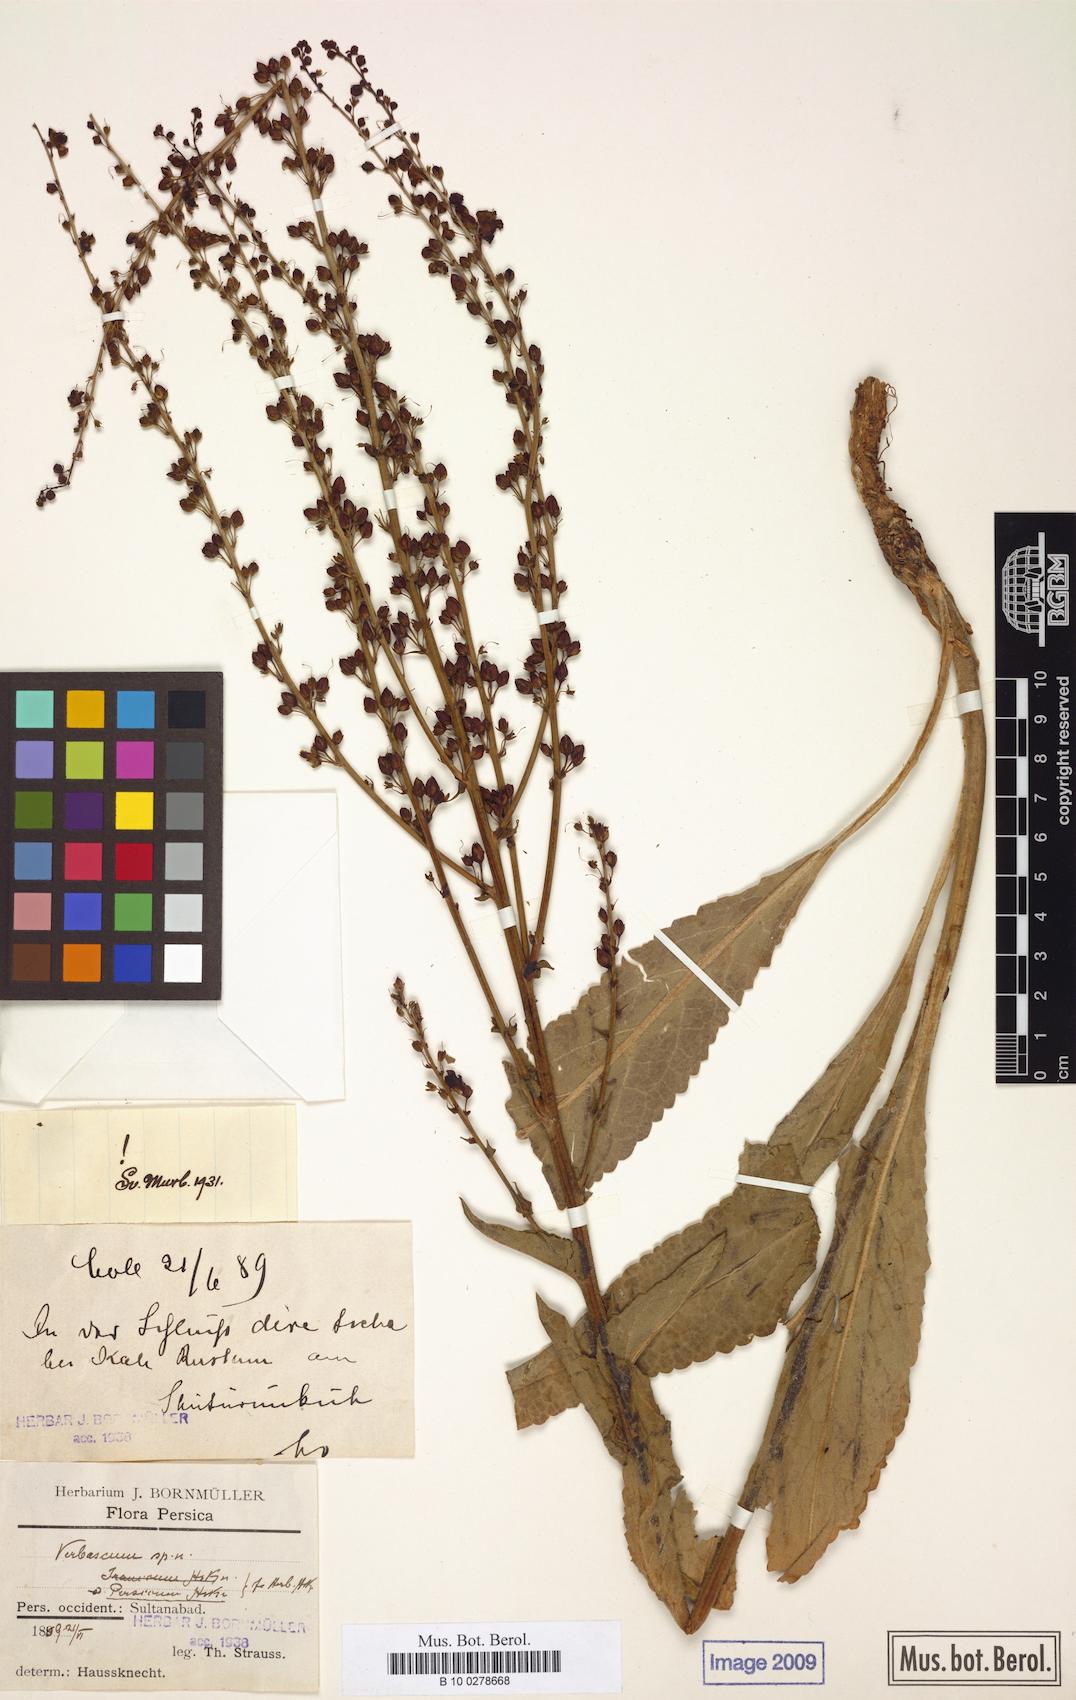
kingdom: Plantae
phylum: Tracheophyta
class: Magnoliopsida
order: Lamiales
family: Scrophulariaceae
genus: Verbascum
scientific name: Verbascum haussknechtianum
